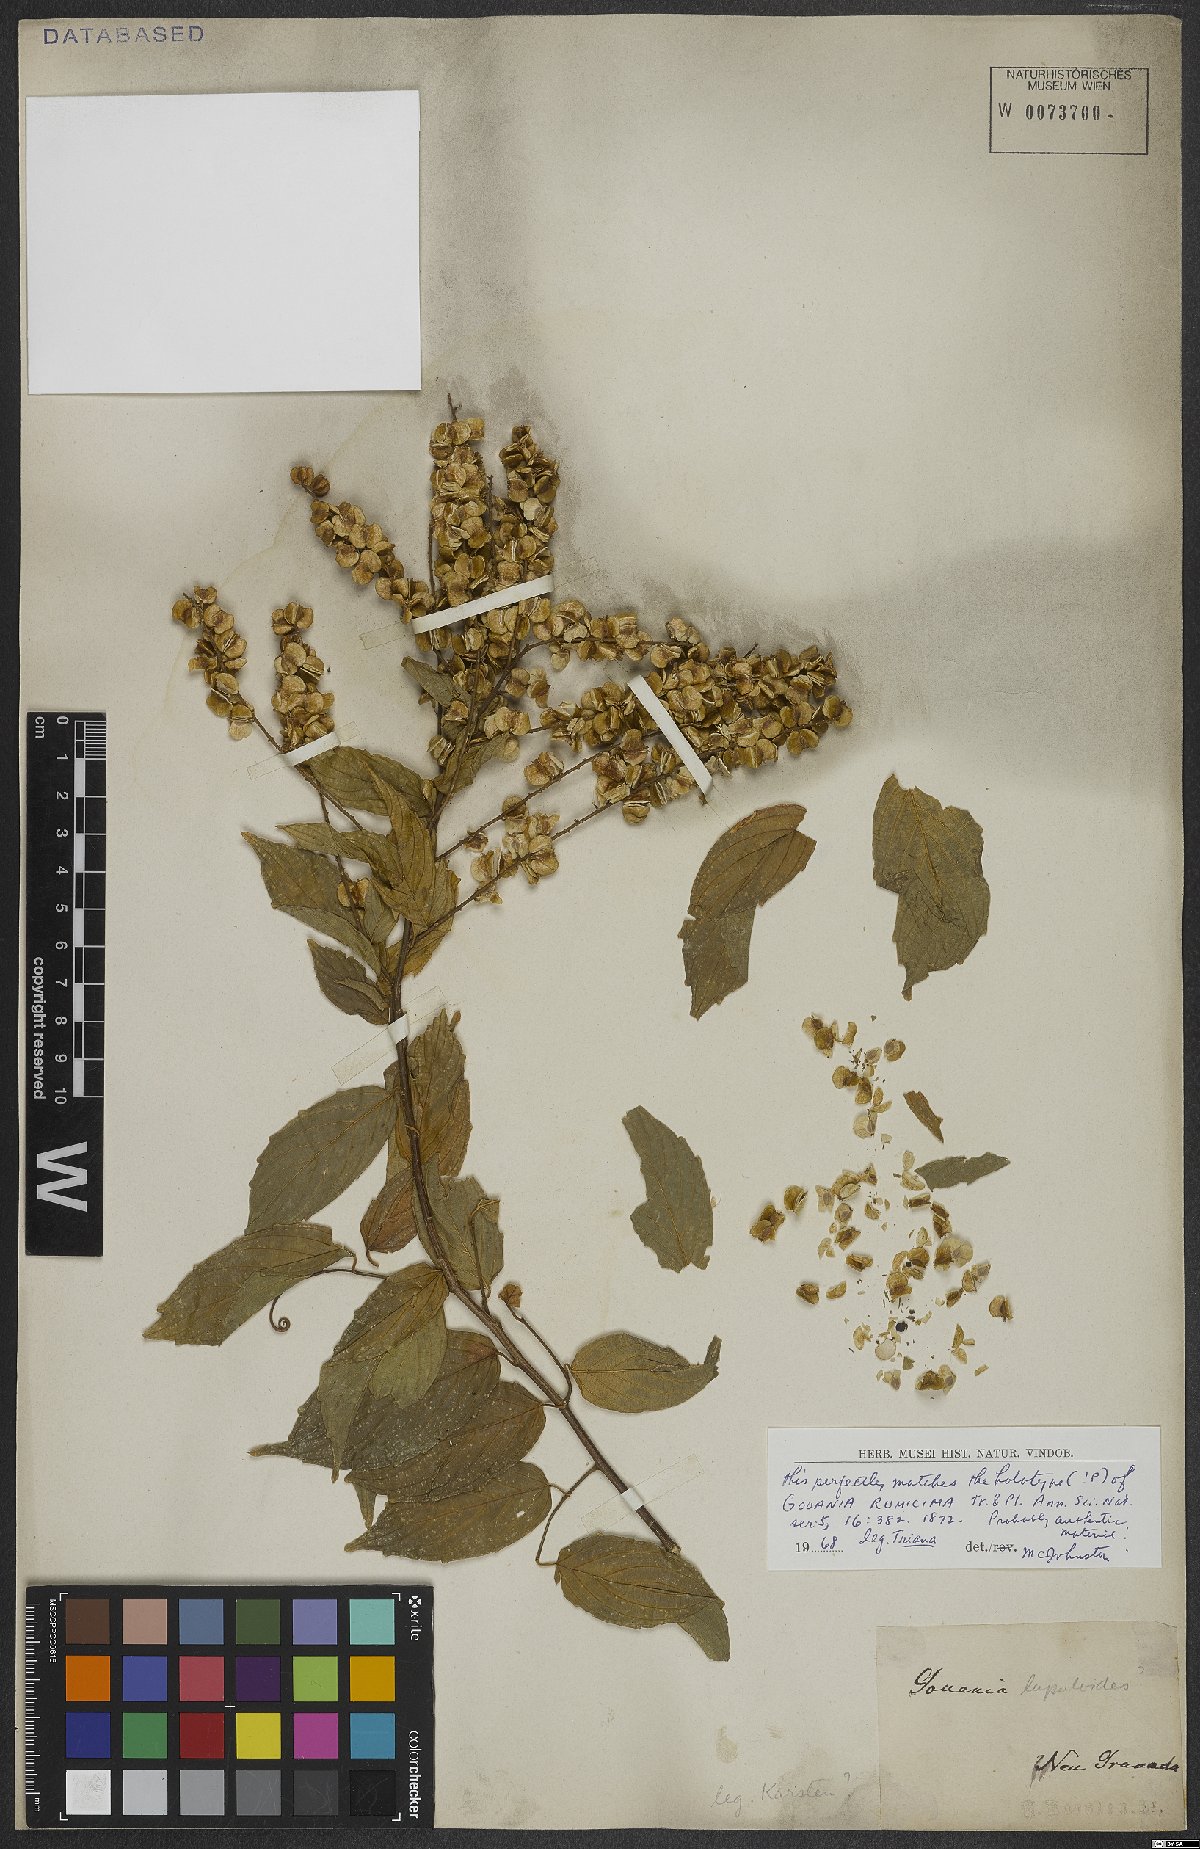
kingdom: Plantae
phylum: Tracheophyta
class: Magnoliopsida
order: Rosales
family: Rhamnaceae
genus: Gouania
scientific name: Gouania rumicina
